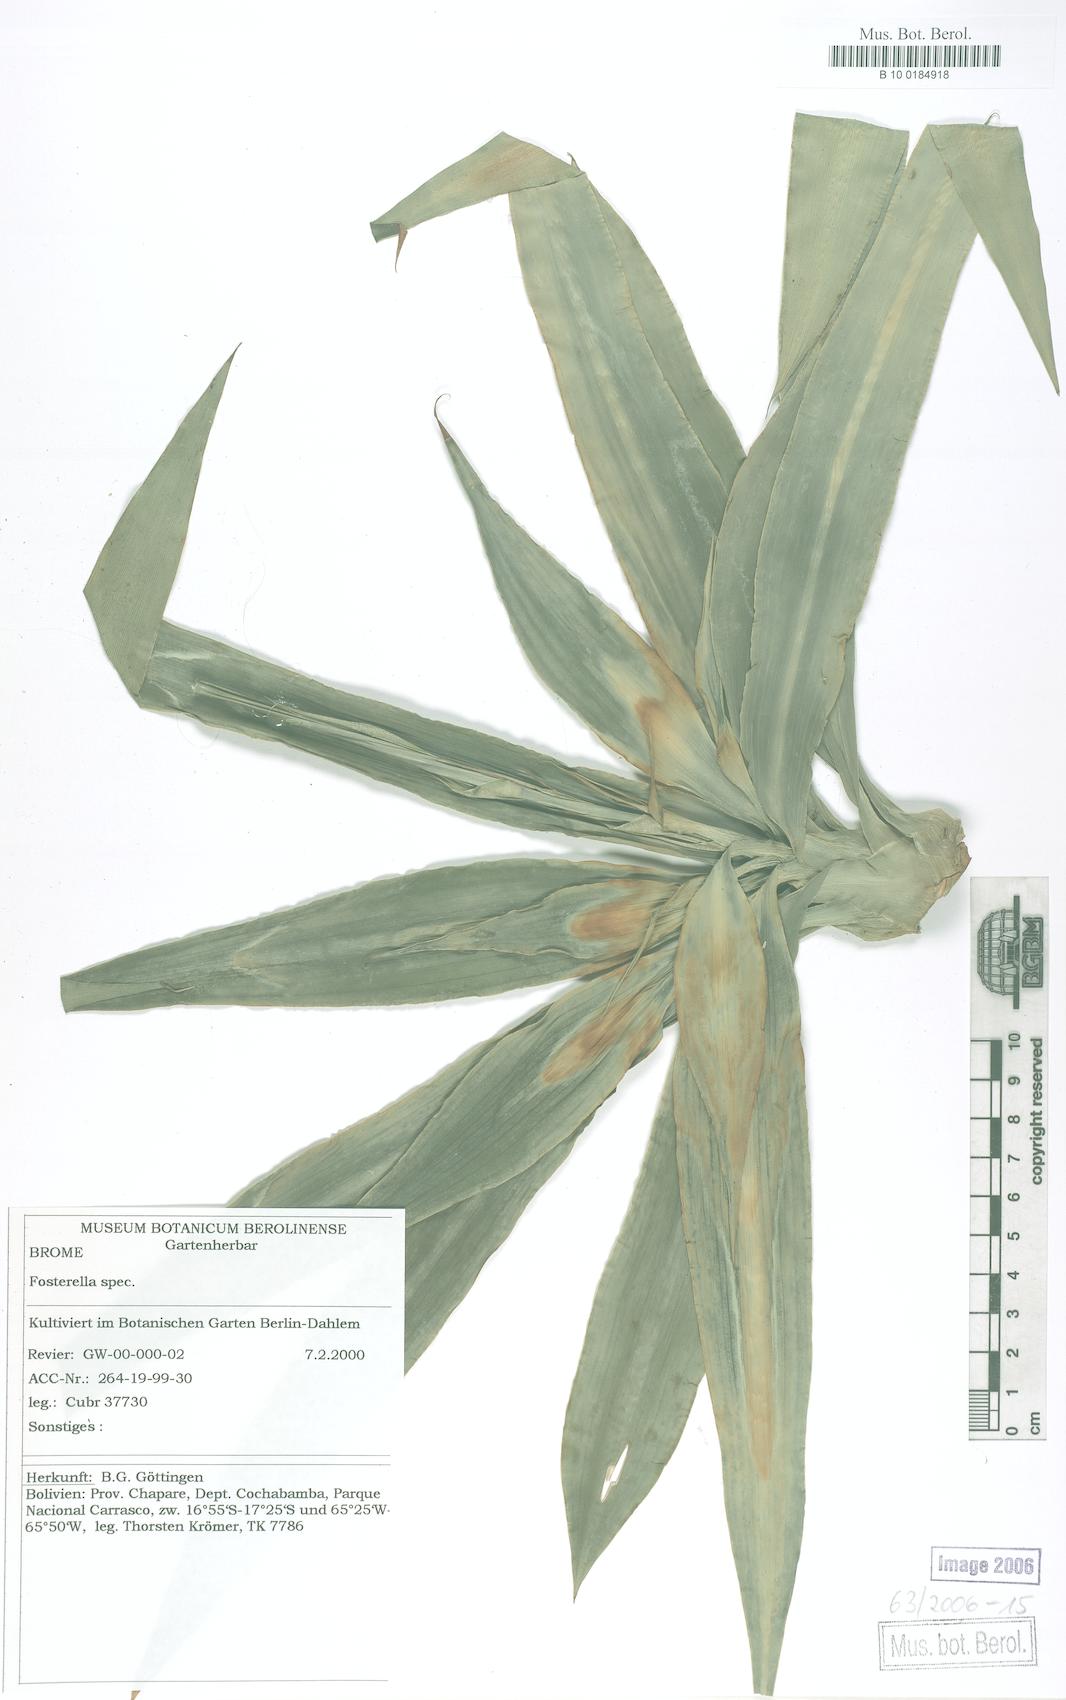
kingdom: Plantae
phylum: Tracheophyta
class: Liliopsida
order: Poales
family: Bromeliaceae
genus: Fosterella
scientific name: Fosterella chaparensis
